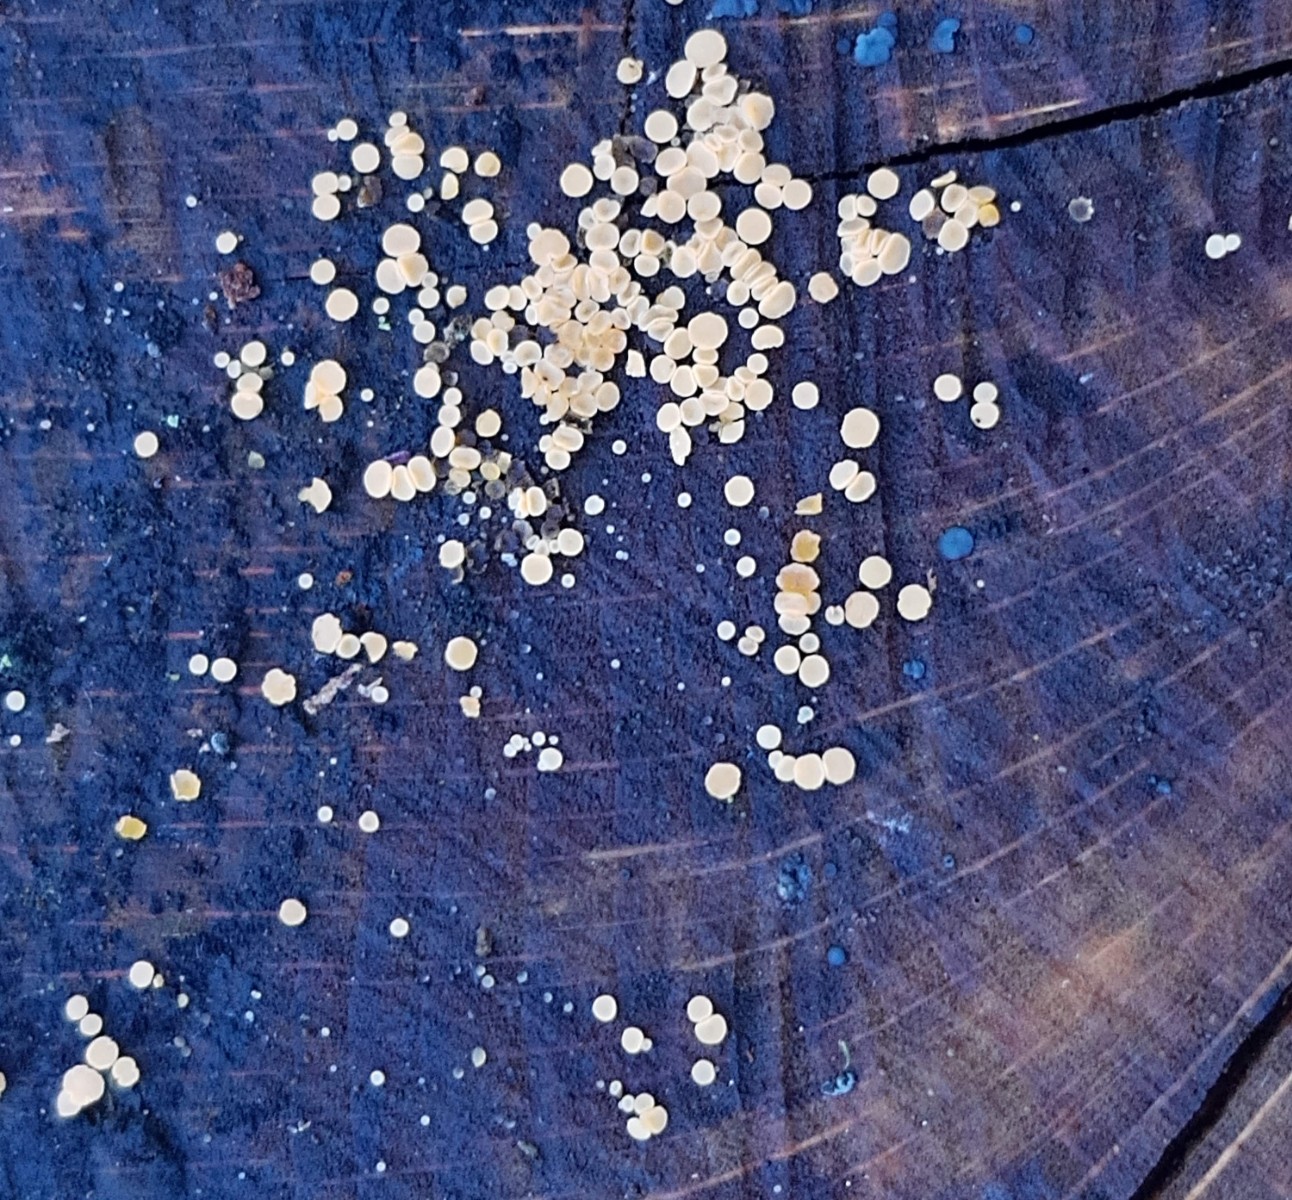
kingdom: Fungi
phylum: Ascomycota
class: Leotiomycetes
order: Helotiales
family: Helotiaceae
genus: Bispora
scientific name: Bispora pallescens
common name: måtte-snitskive
